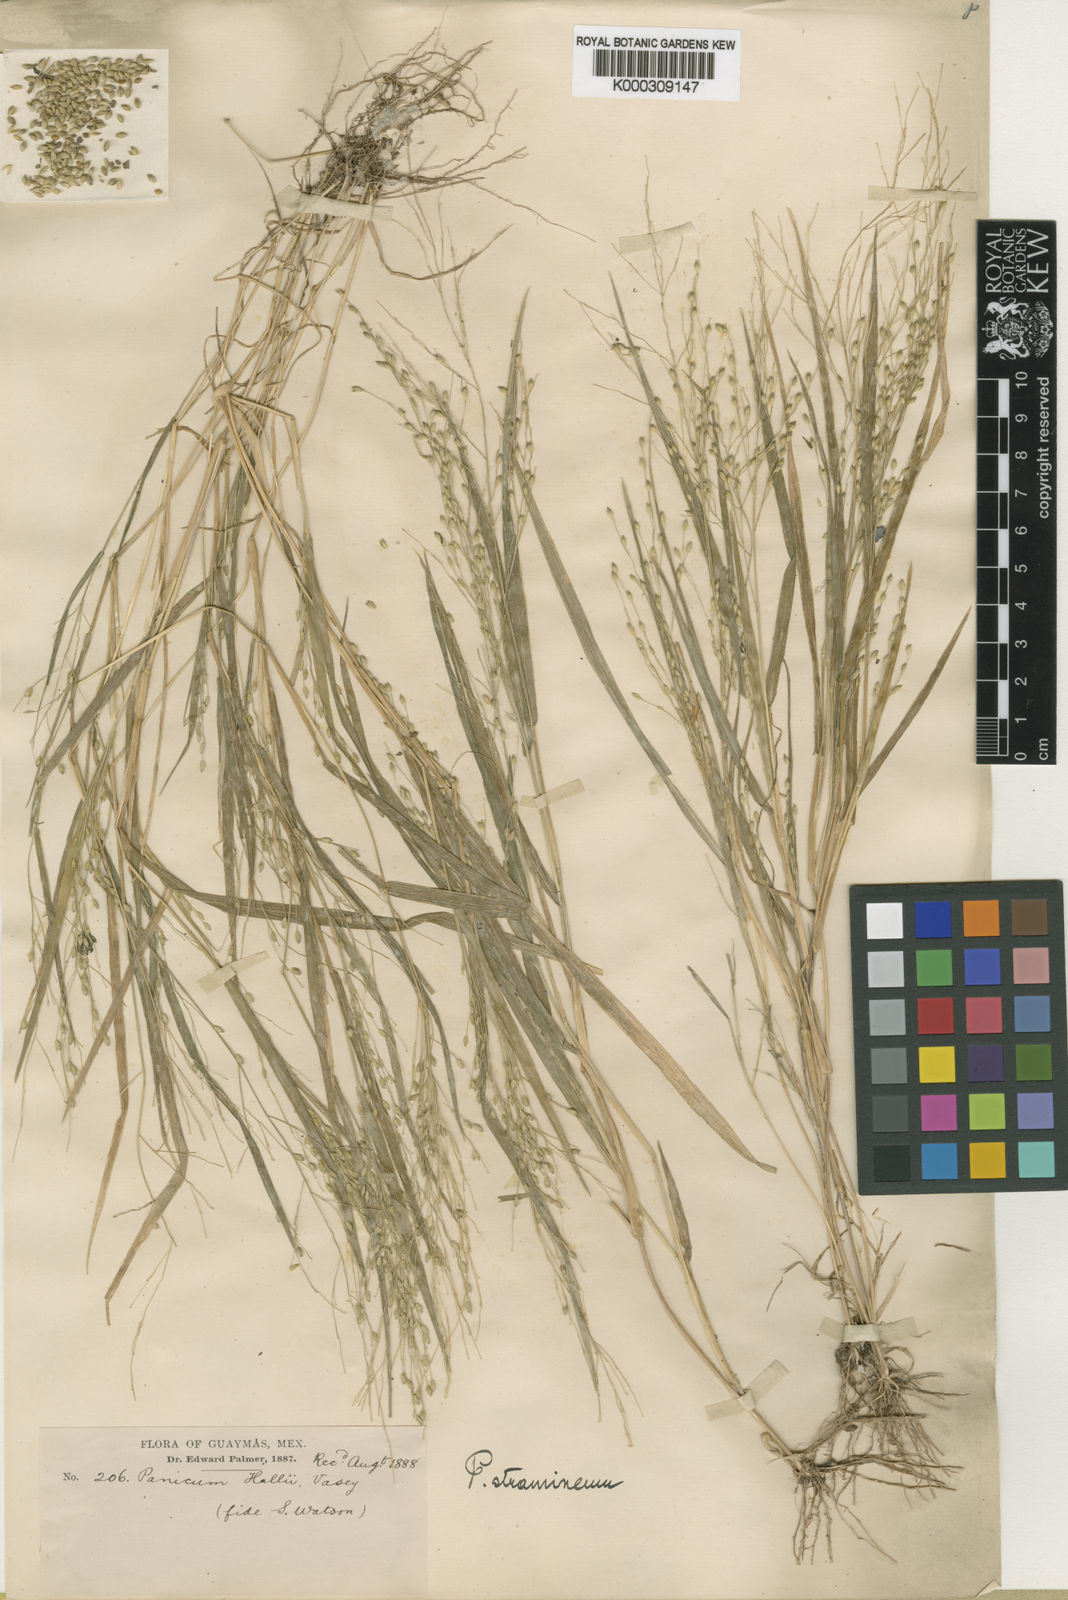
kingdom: Plantae
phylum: Tracheophyta
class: Liliopsida
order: Poales
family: Poaceae
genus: Panicum
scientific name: Panicum stramineum
